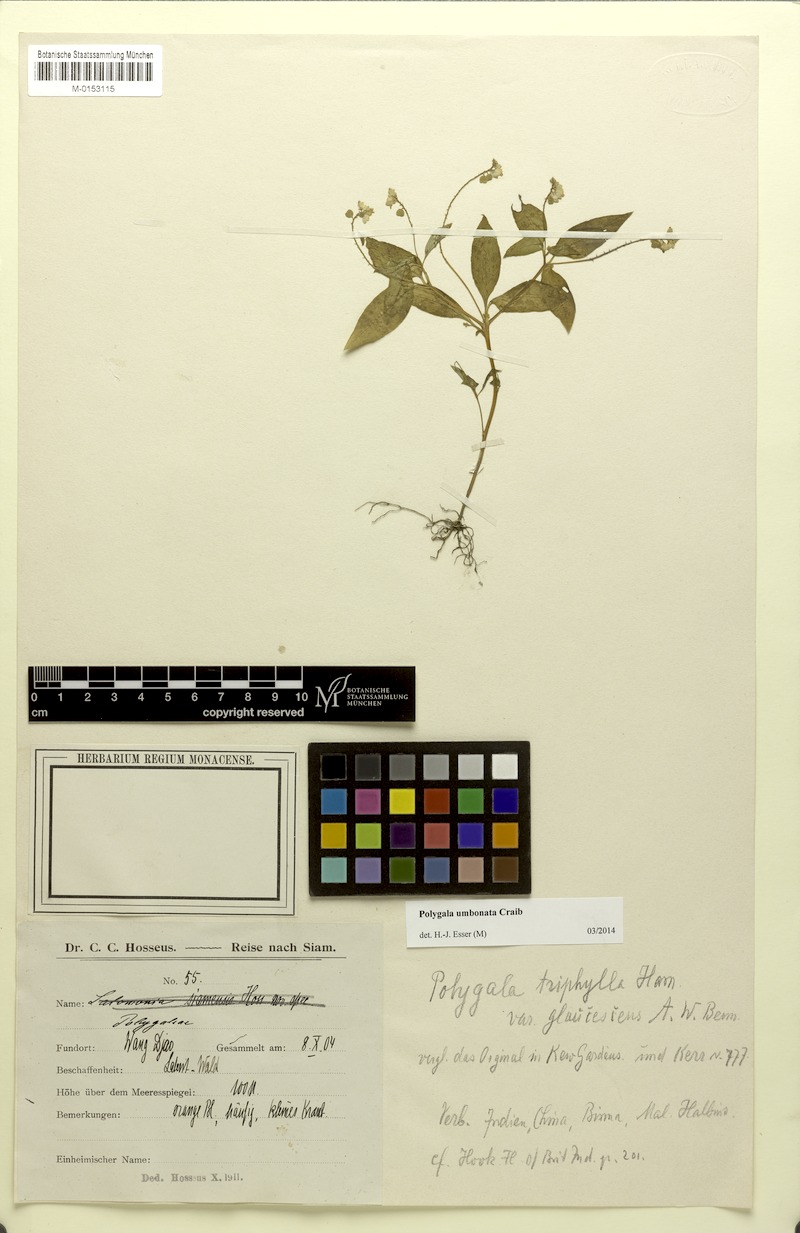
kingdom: Plantae
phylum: Tracheophyta
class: Magnoliopsida
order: Fabales
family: Polygalaceae
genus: Polygala
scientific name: Polygala umbonata
